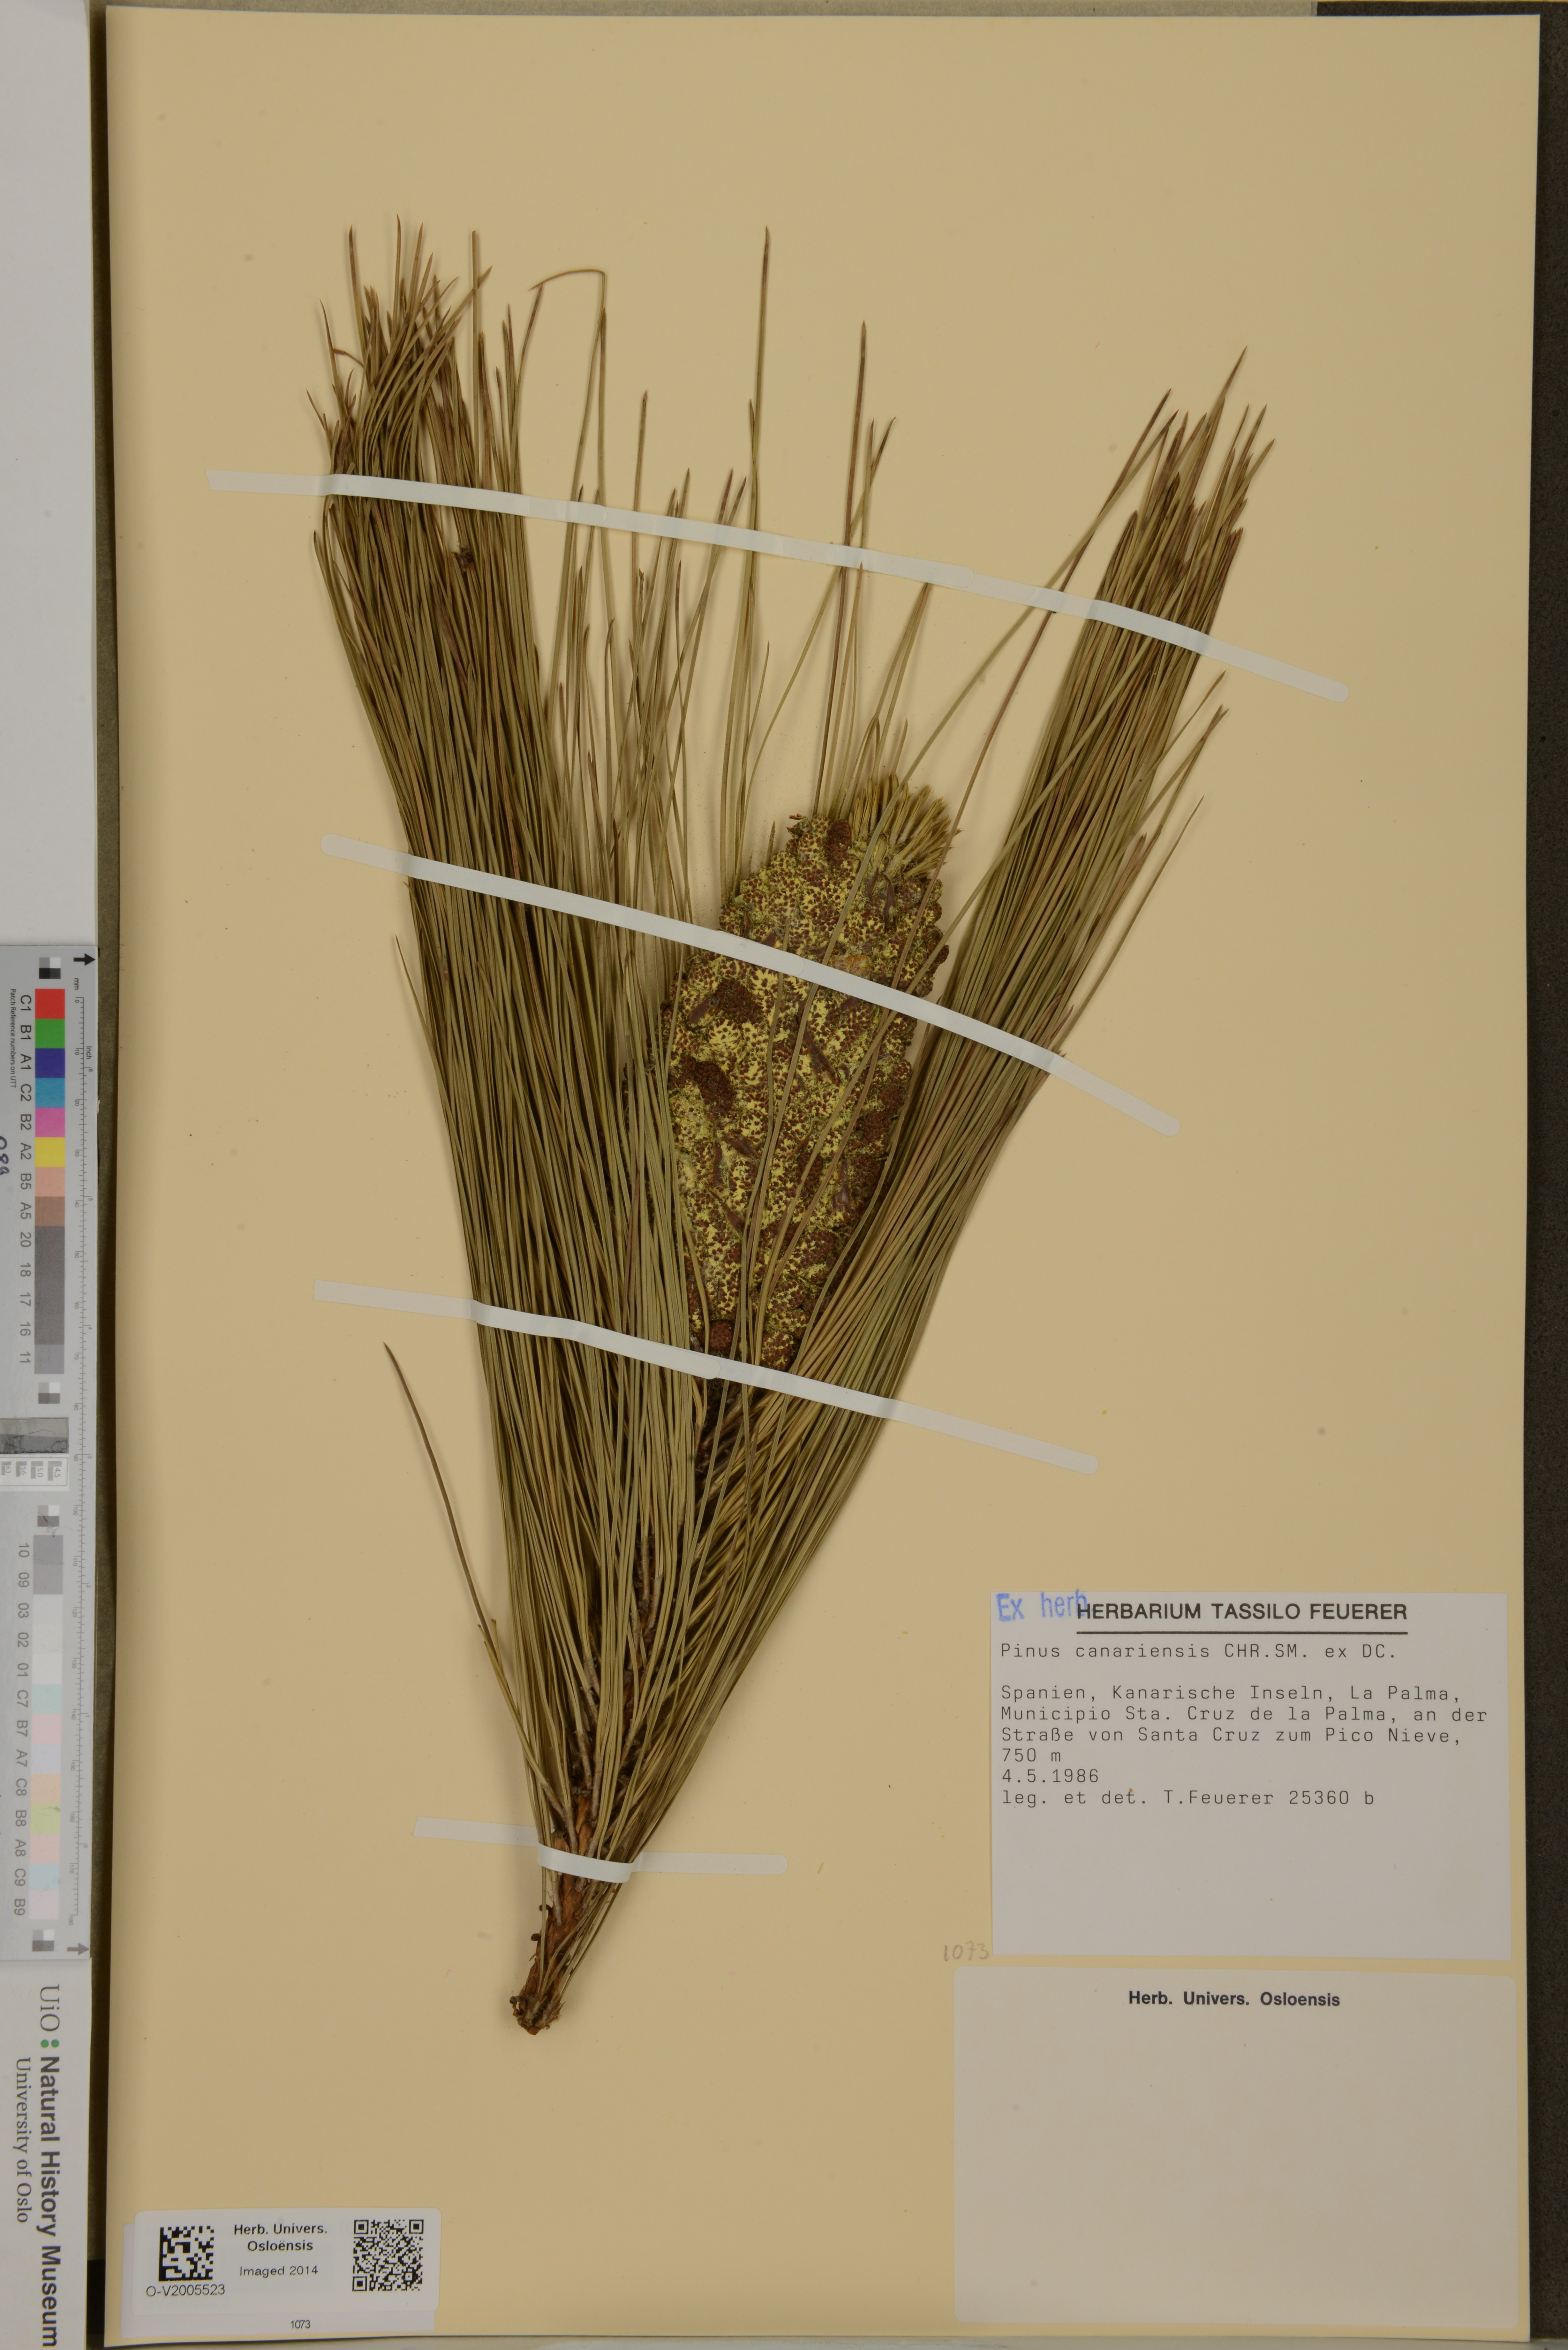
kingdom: Plantae
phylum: Tracheophyta
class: Pinopsida
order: Pinales
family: Pinaceae
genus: Pinus
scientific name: Pinus canariensis
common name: Canary islands pine
